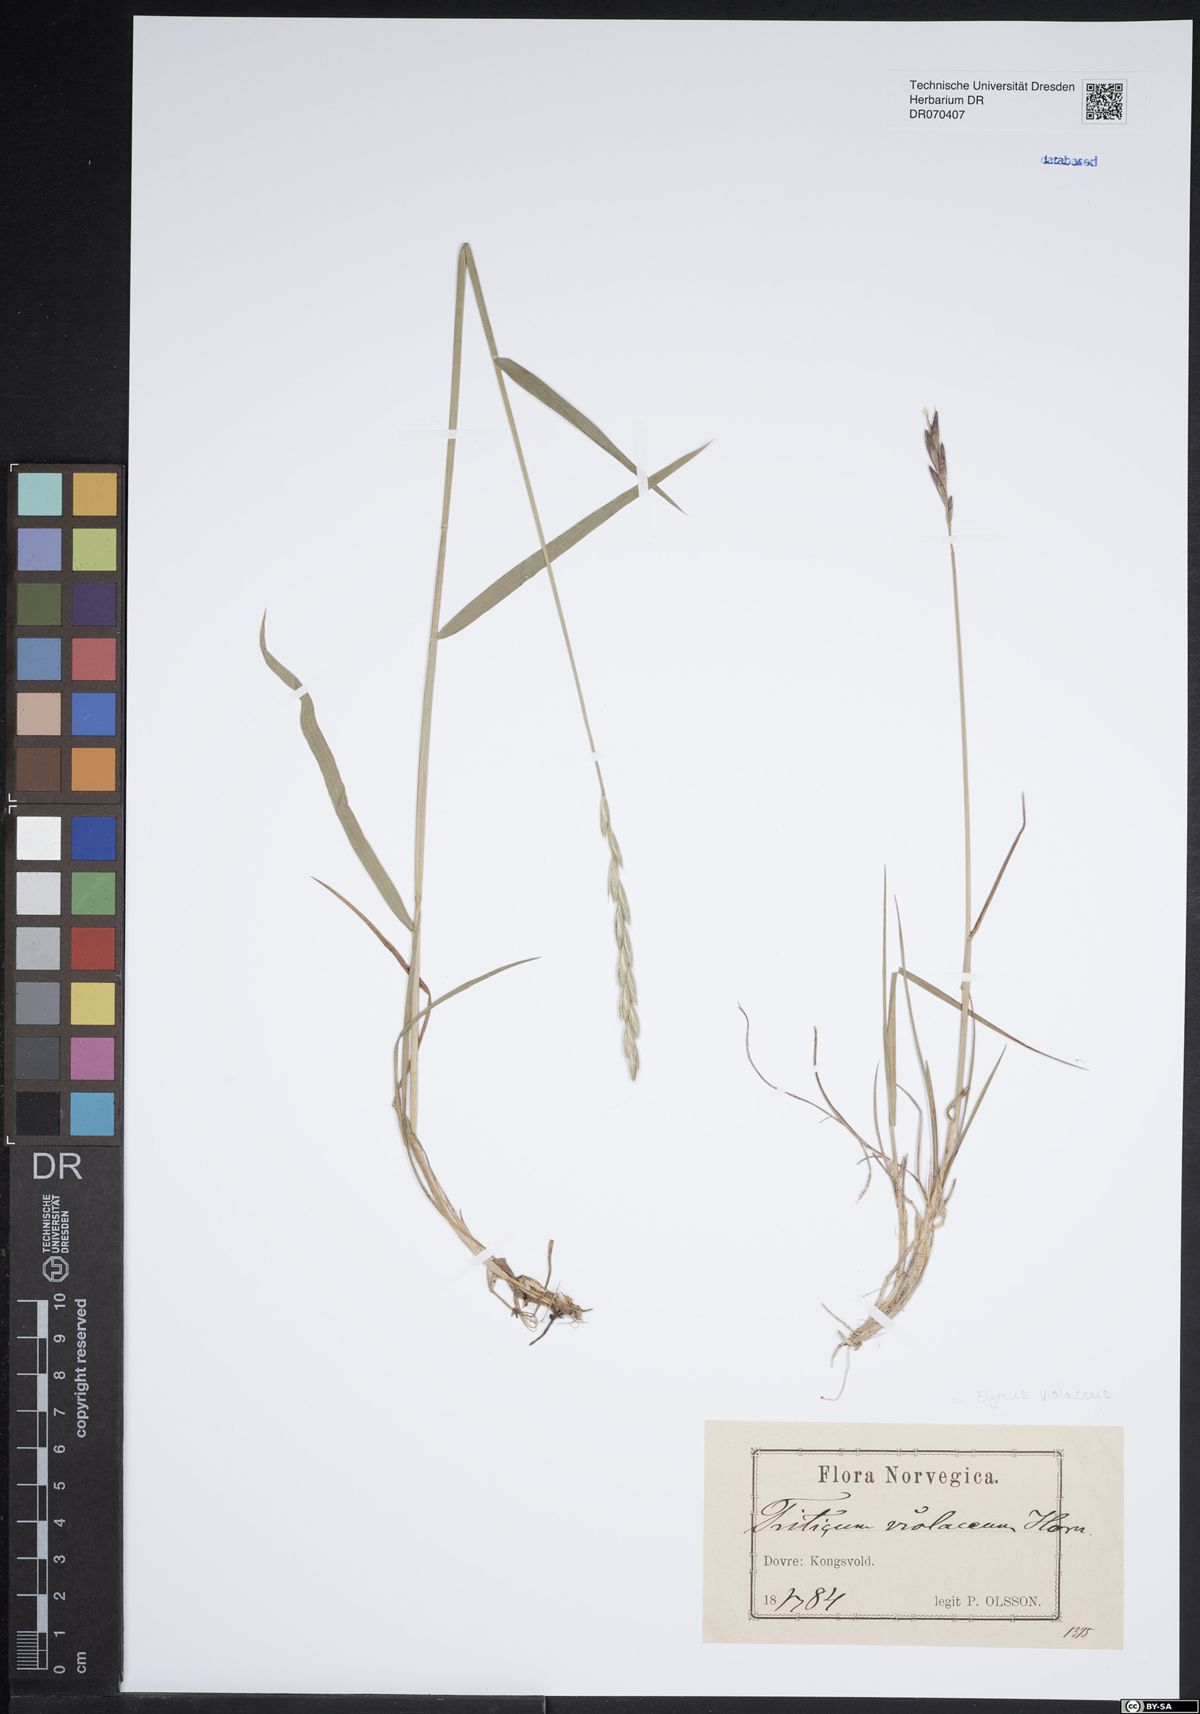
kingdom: Plantae
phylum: Tracheophyta
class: Liliopsida
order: Poales
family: Poaceae
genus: Elymus
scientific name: Elymus violaceus
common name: Arctic wheatgrass
